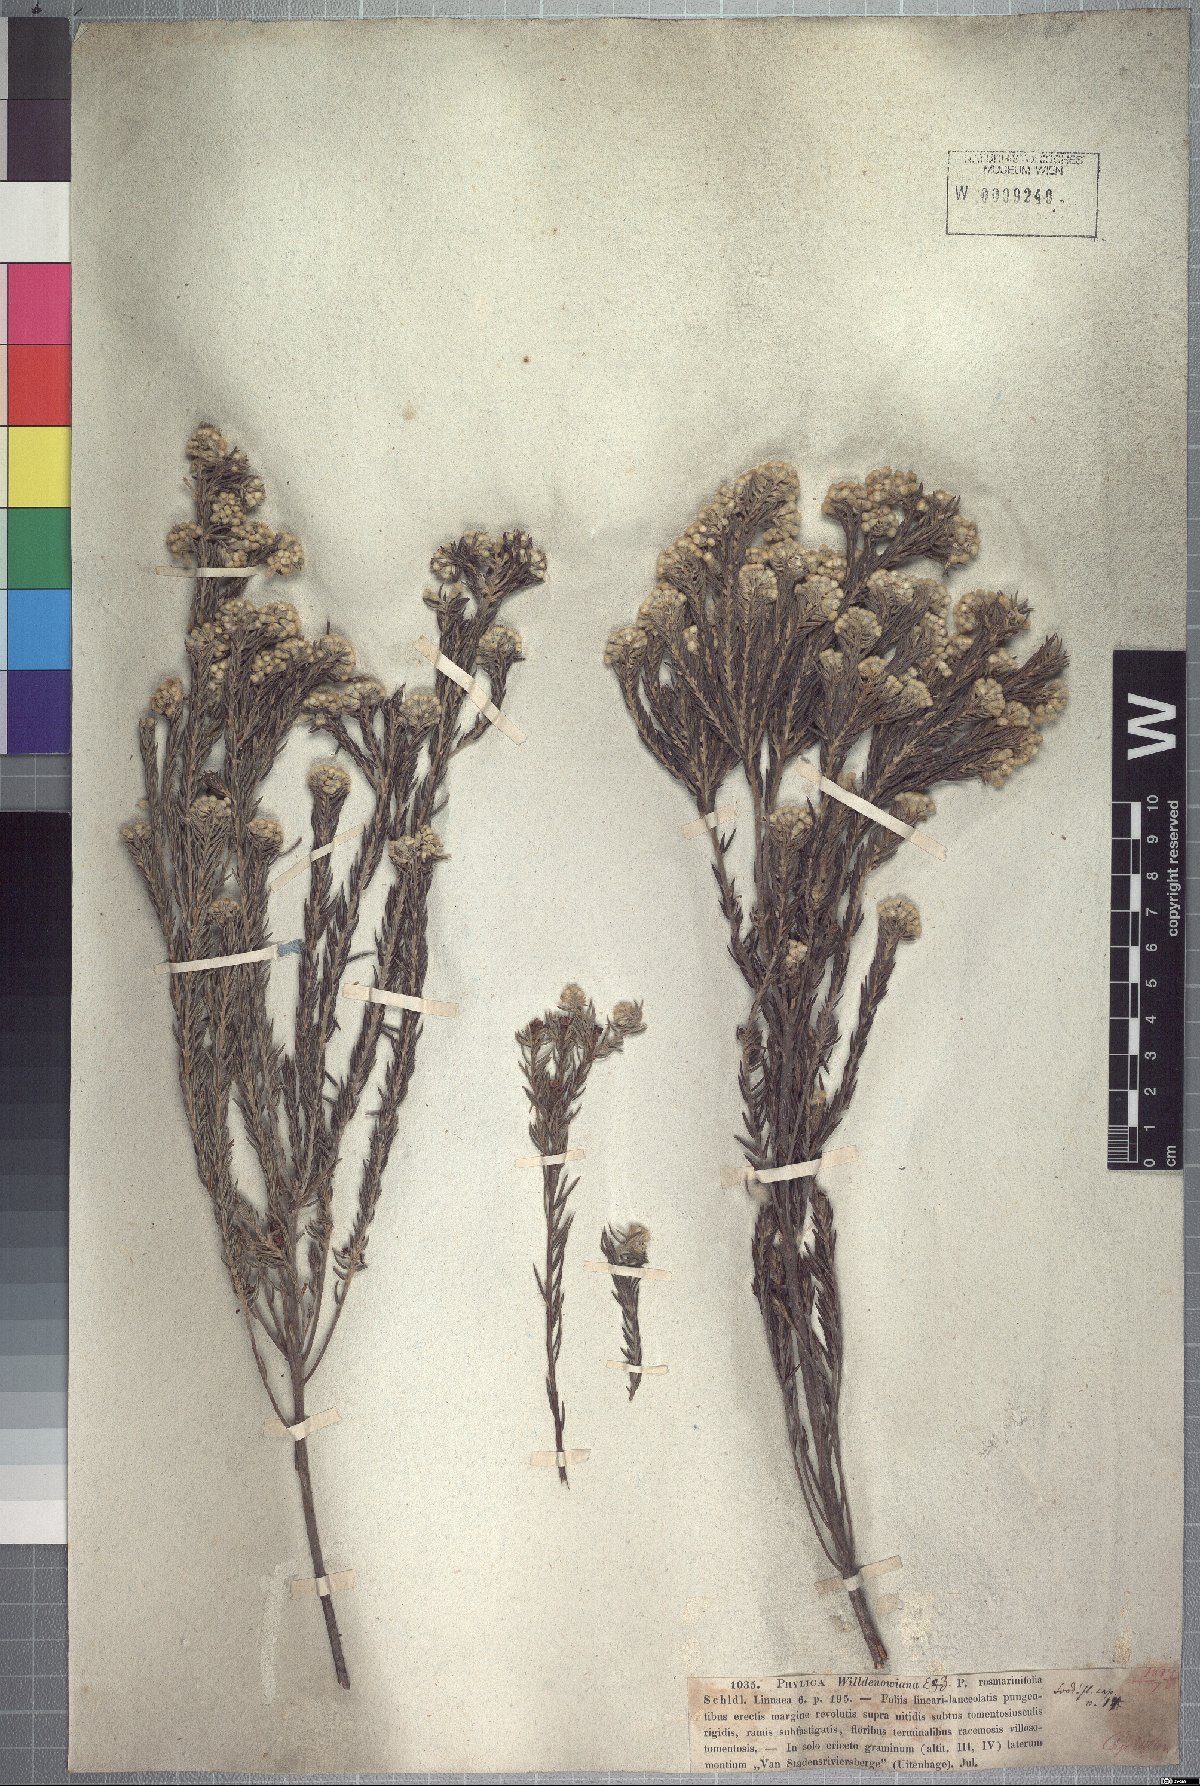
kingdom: Plantae
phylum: Tracheophyta
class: Magnoliopsida
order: Rosales
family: Rhamnaceae
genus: Phylica
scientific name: Phylica willdenowiana
